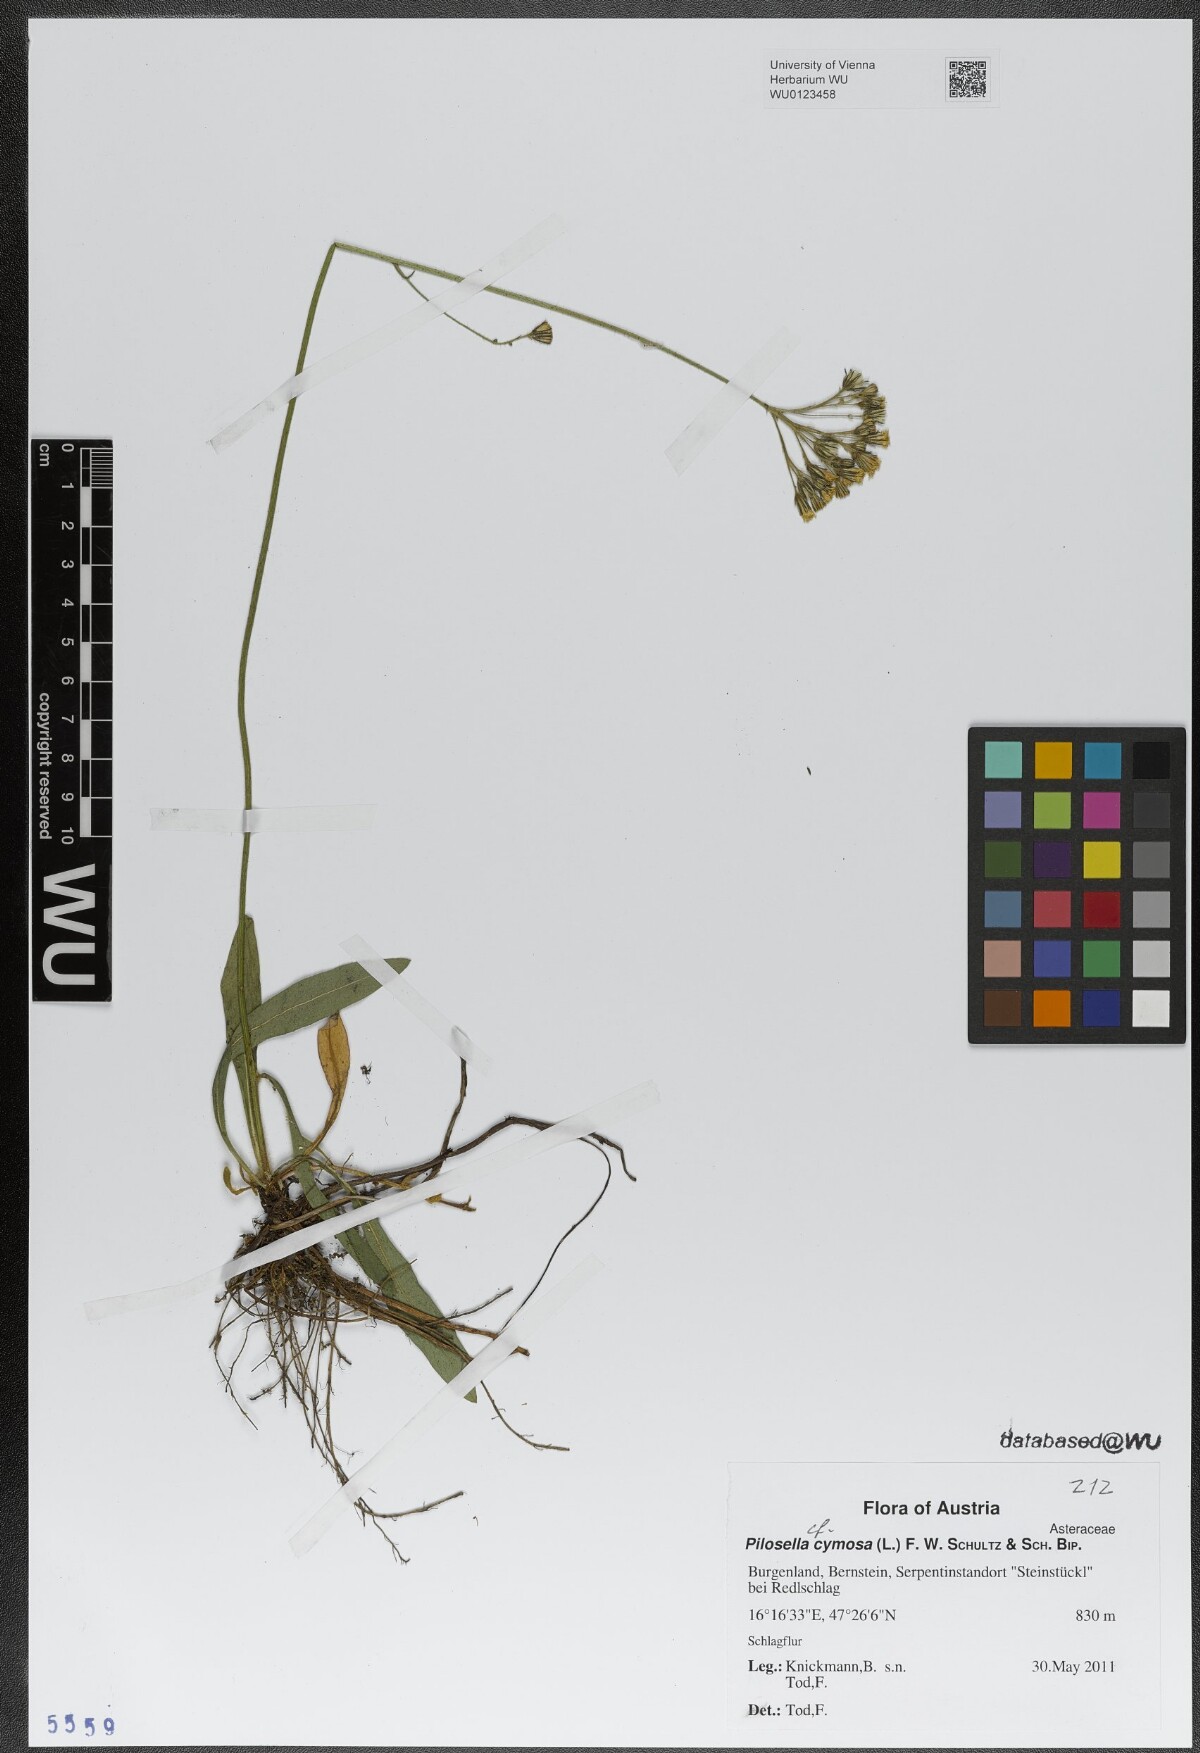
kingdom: Plantae
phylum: Tracheophyta
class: Magnoliopsida
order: Asterales
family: Asteraceae
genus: Pilosella
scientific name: Pilosella cymosa
